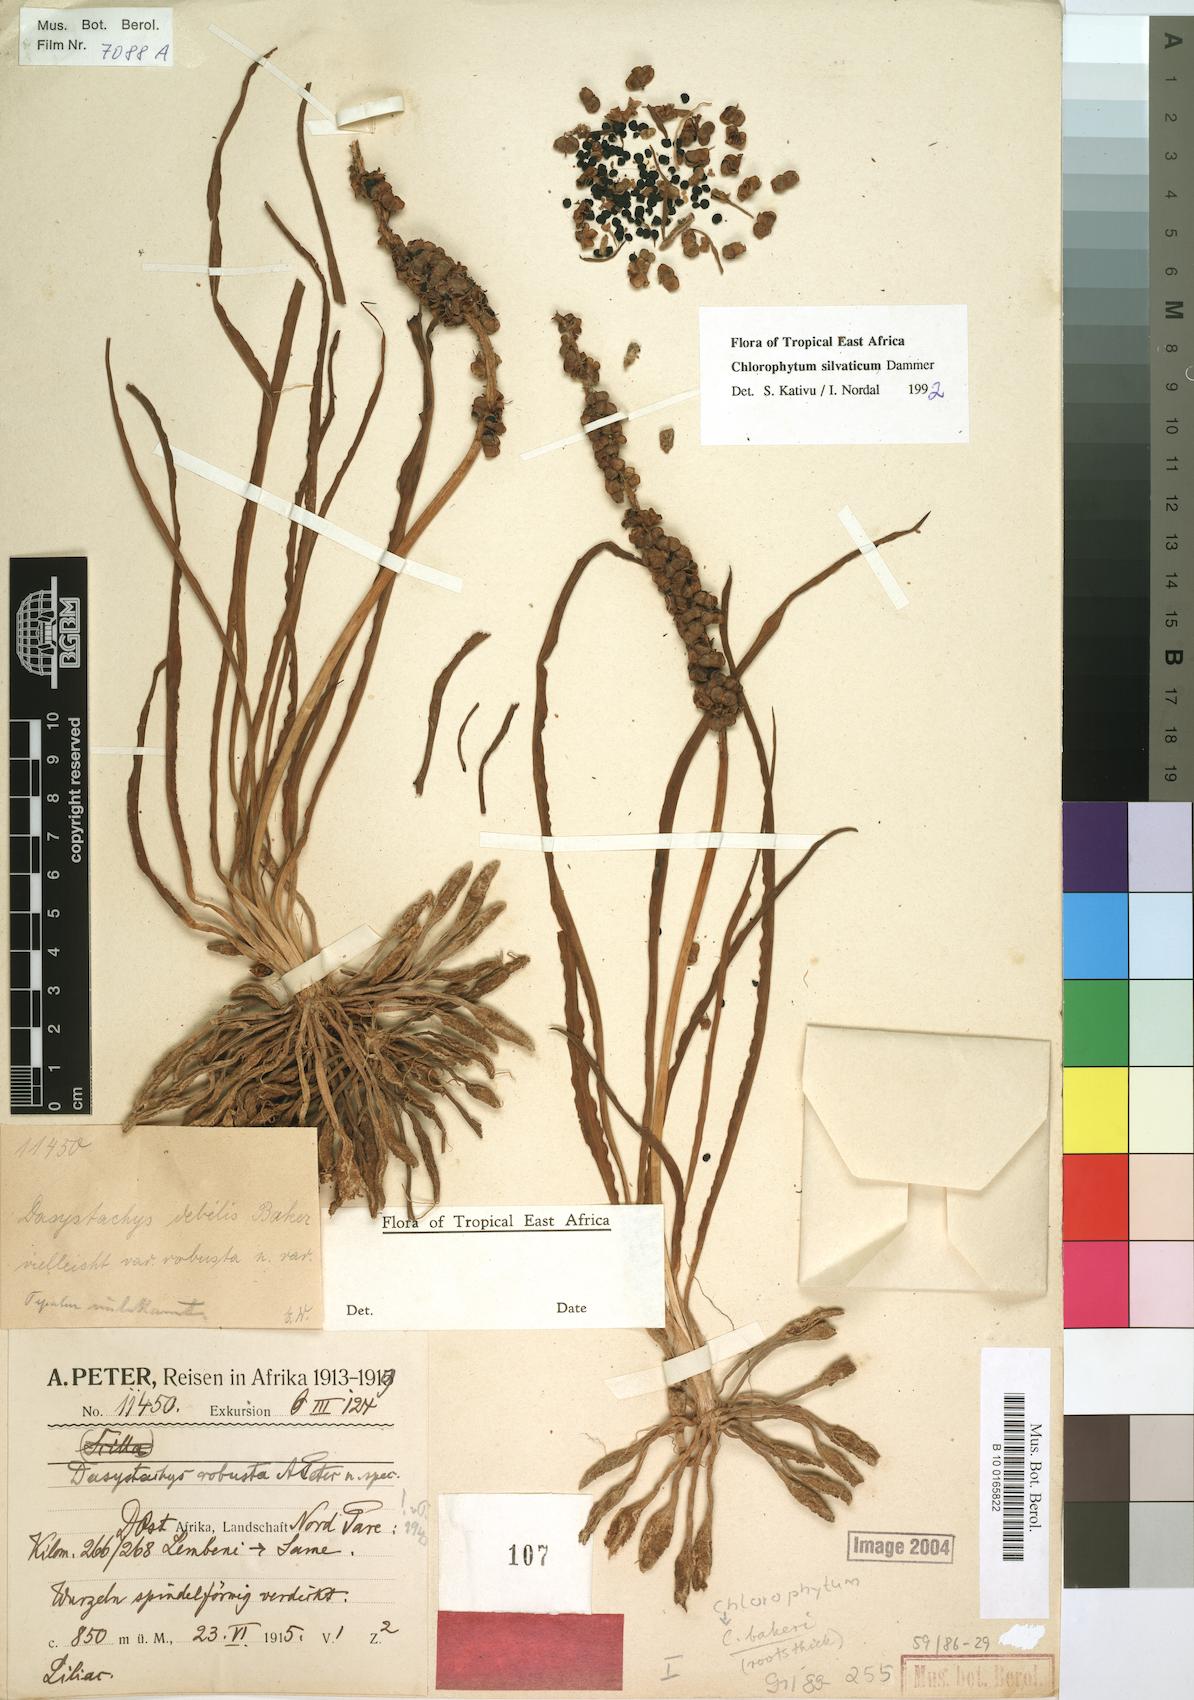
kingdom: Plantae
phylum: Tracheophyta
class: Liliopsida
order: Asparagales
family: Asparagaceae
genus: Chlorophytum
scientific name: Chlorophytum africanum
